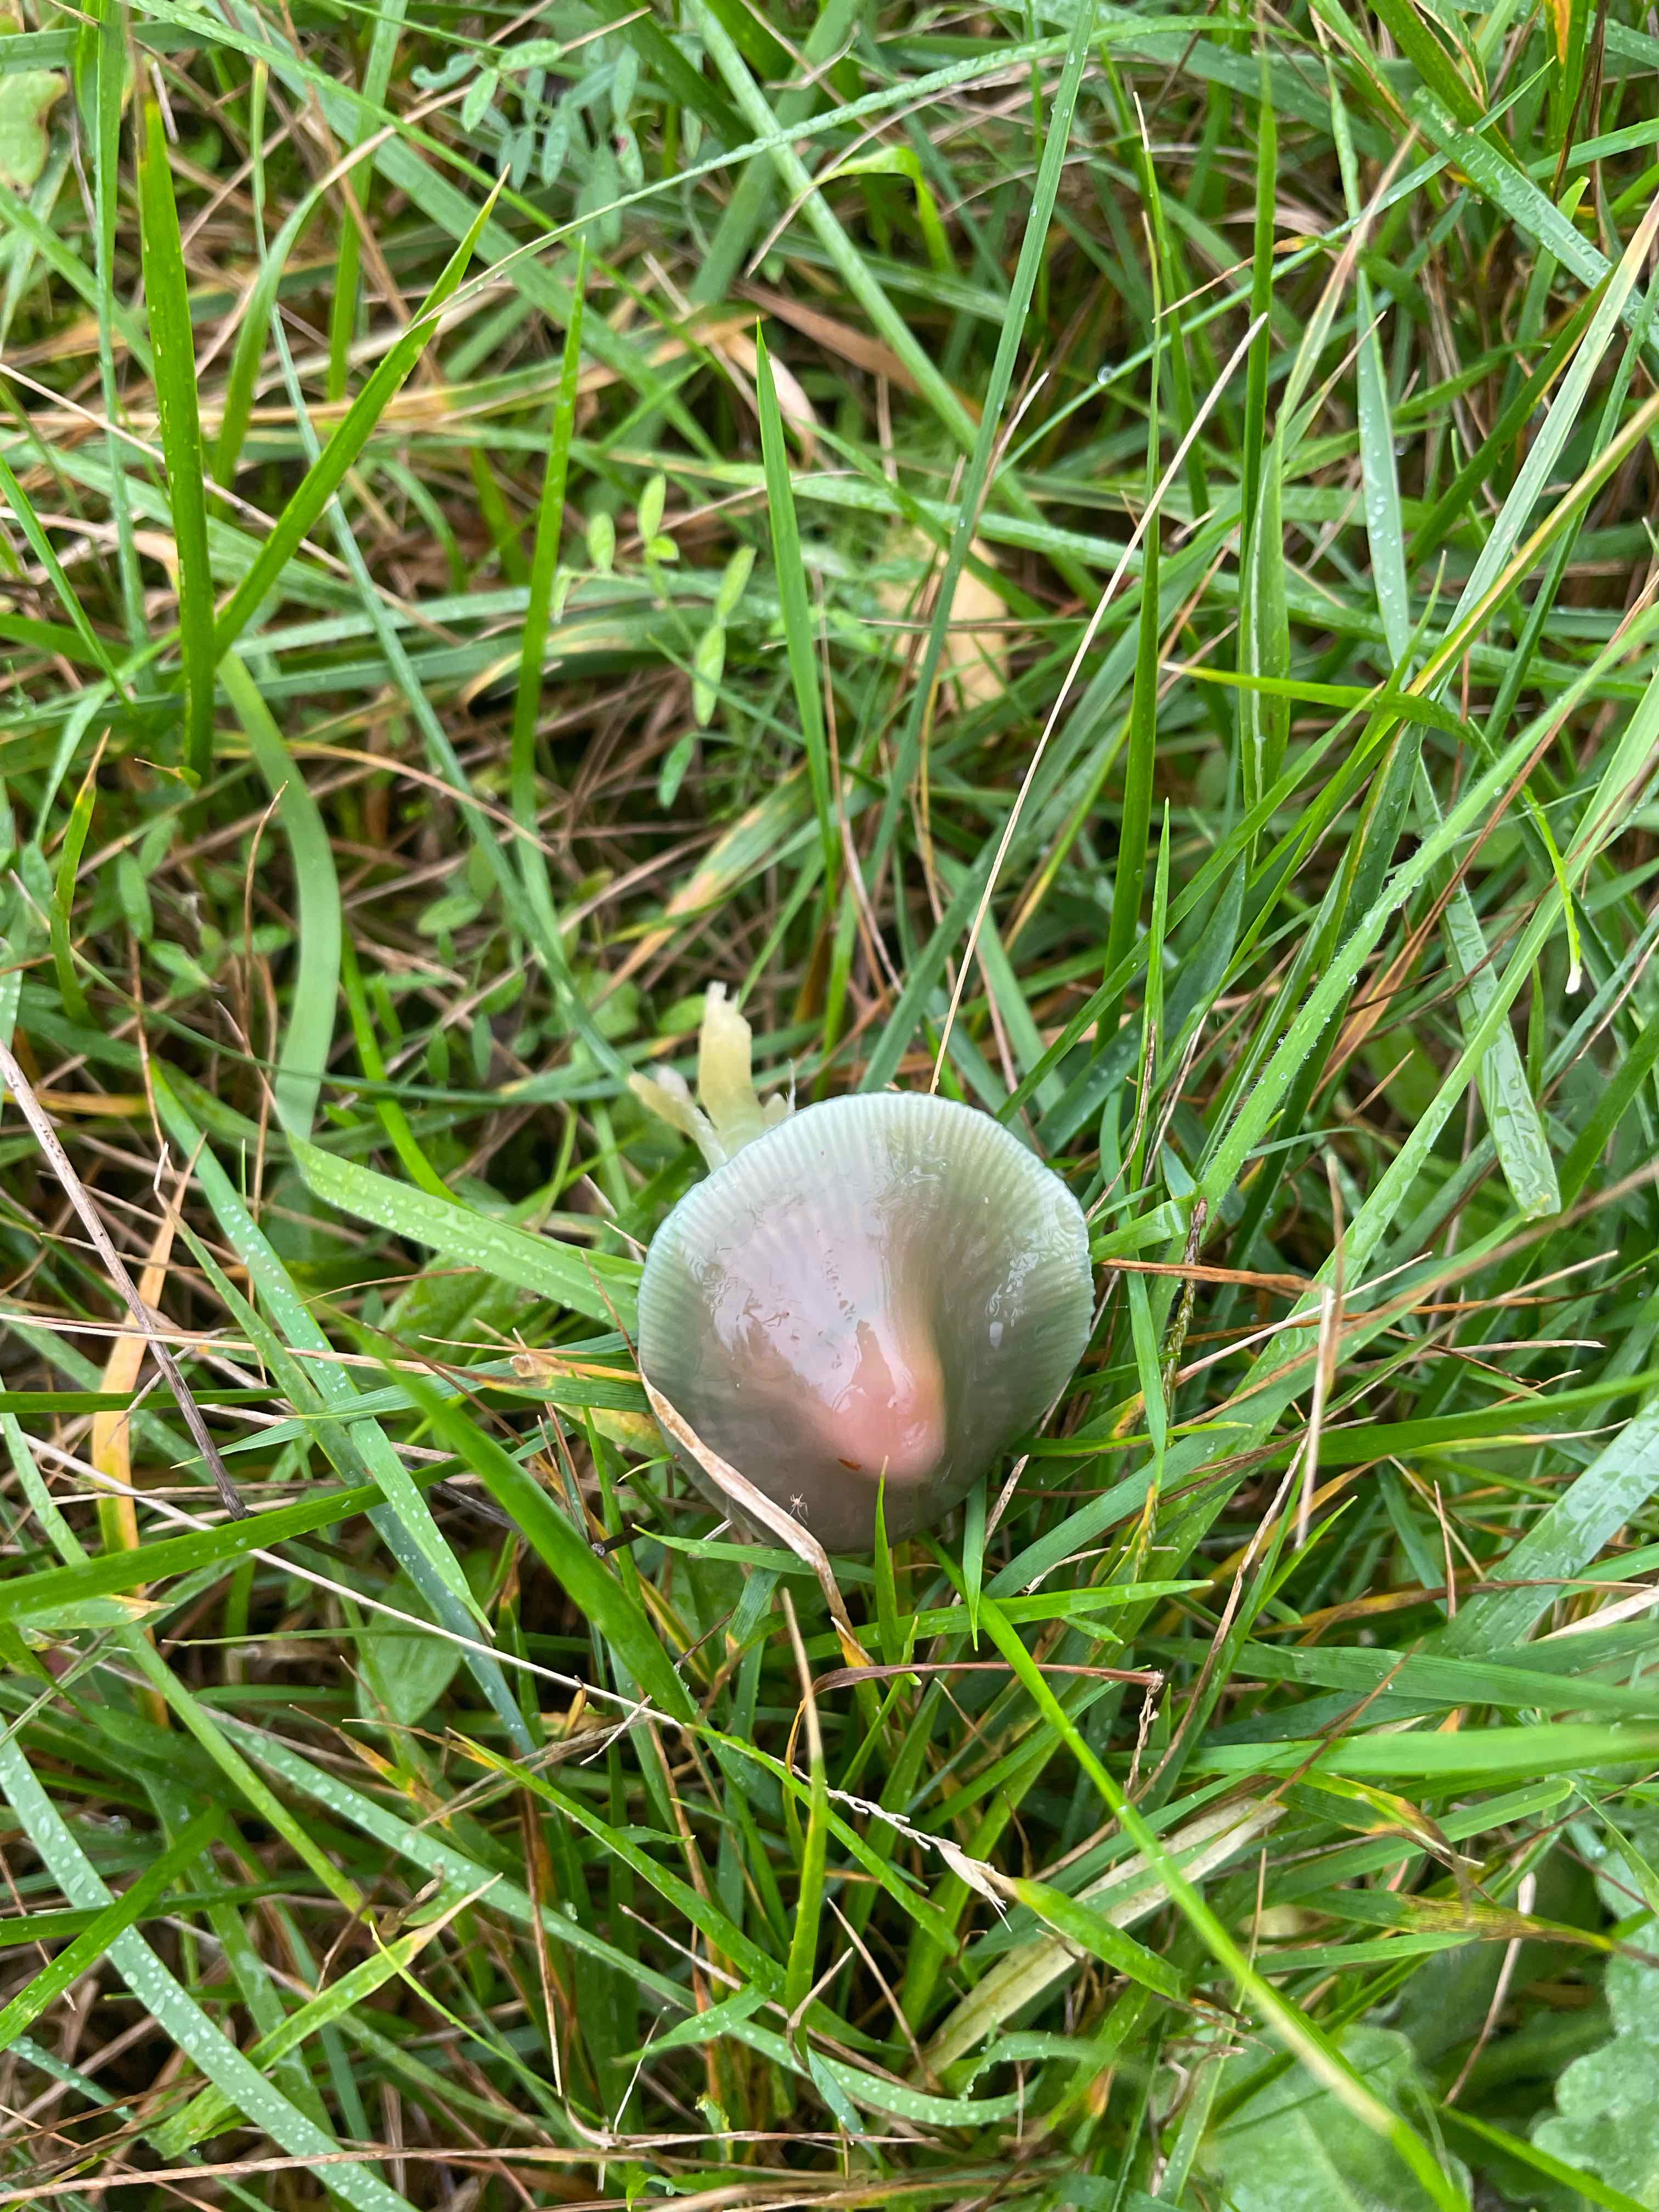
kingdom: Fungi
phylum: Basidiomycota
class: Agaricomycetes
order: Agaricales
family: Hygrophoraceae
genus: Gliophorus
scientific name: Gliophorus psittacinus
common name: papegøje-vokshat
